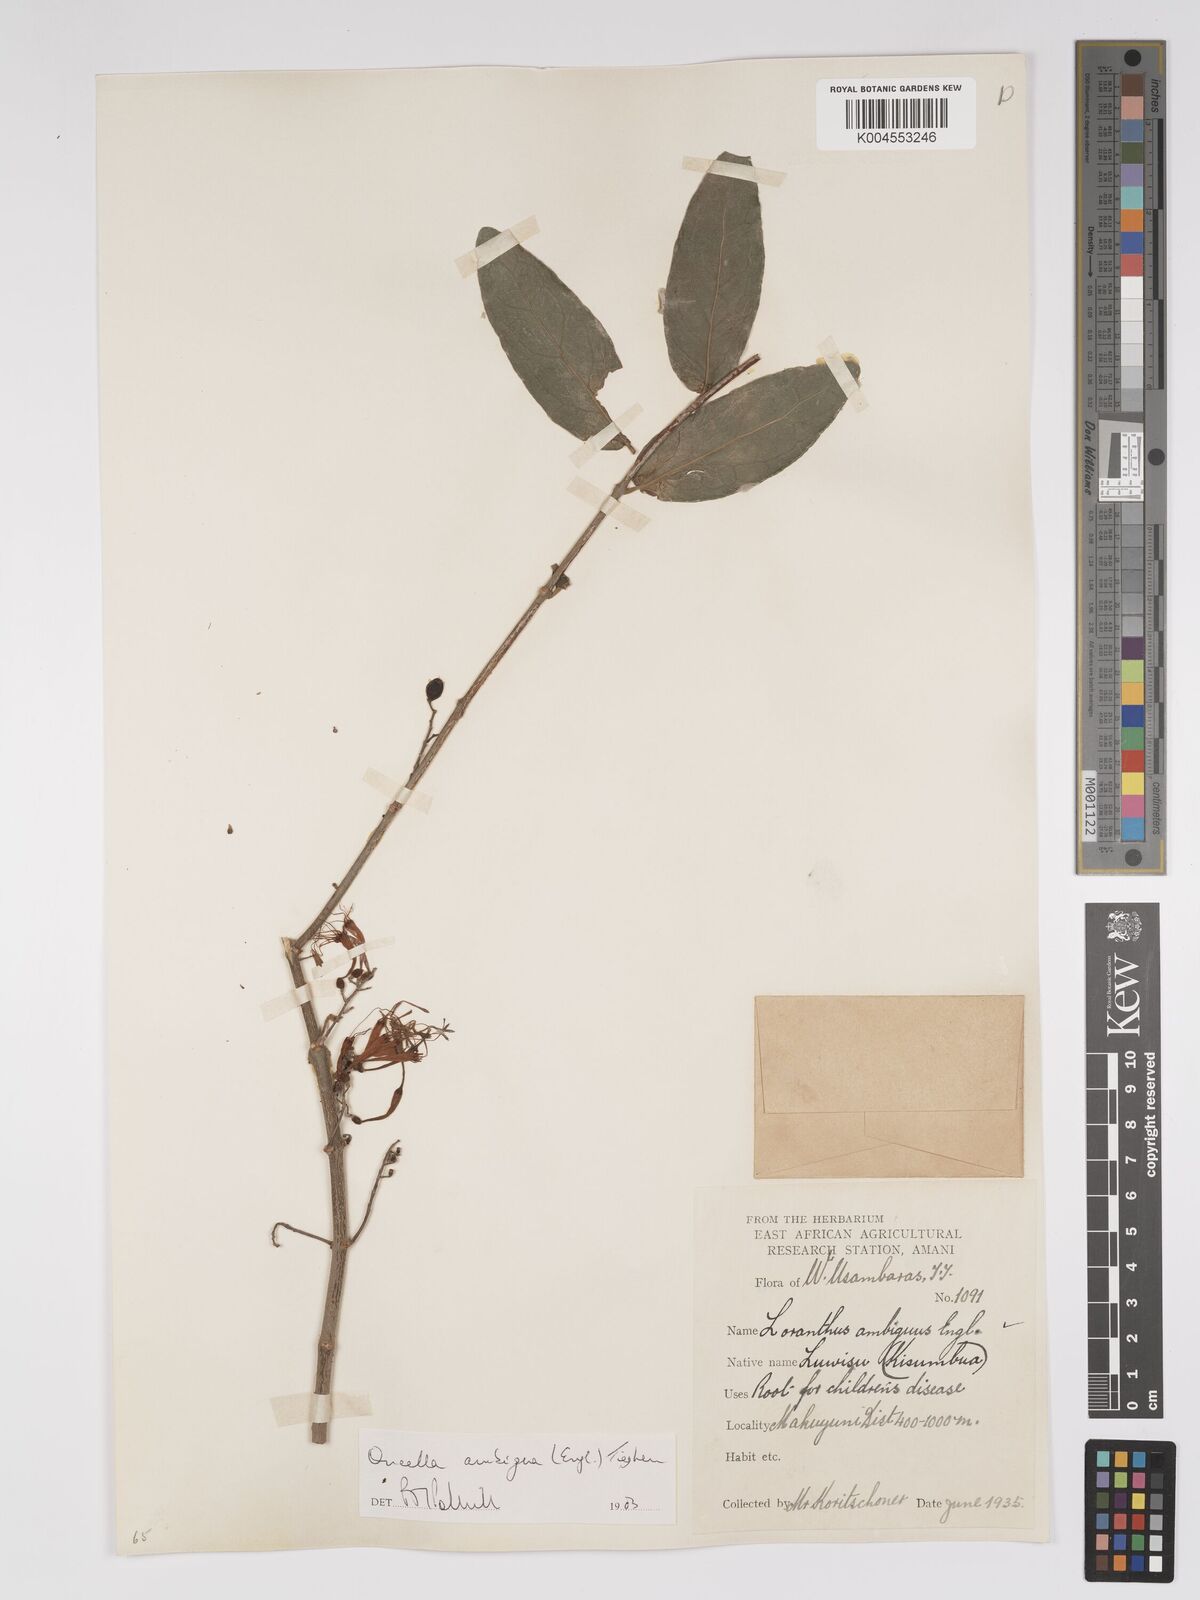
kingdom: Plantae
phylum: Tracheophyta
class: Magnoliopsida
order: Santalales
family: Loranthaceae
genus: Oncella
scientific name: Oncella ambigua
